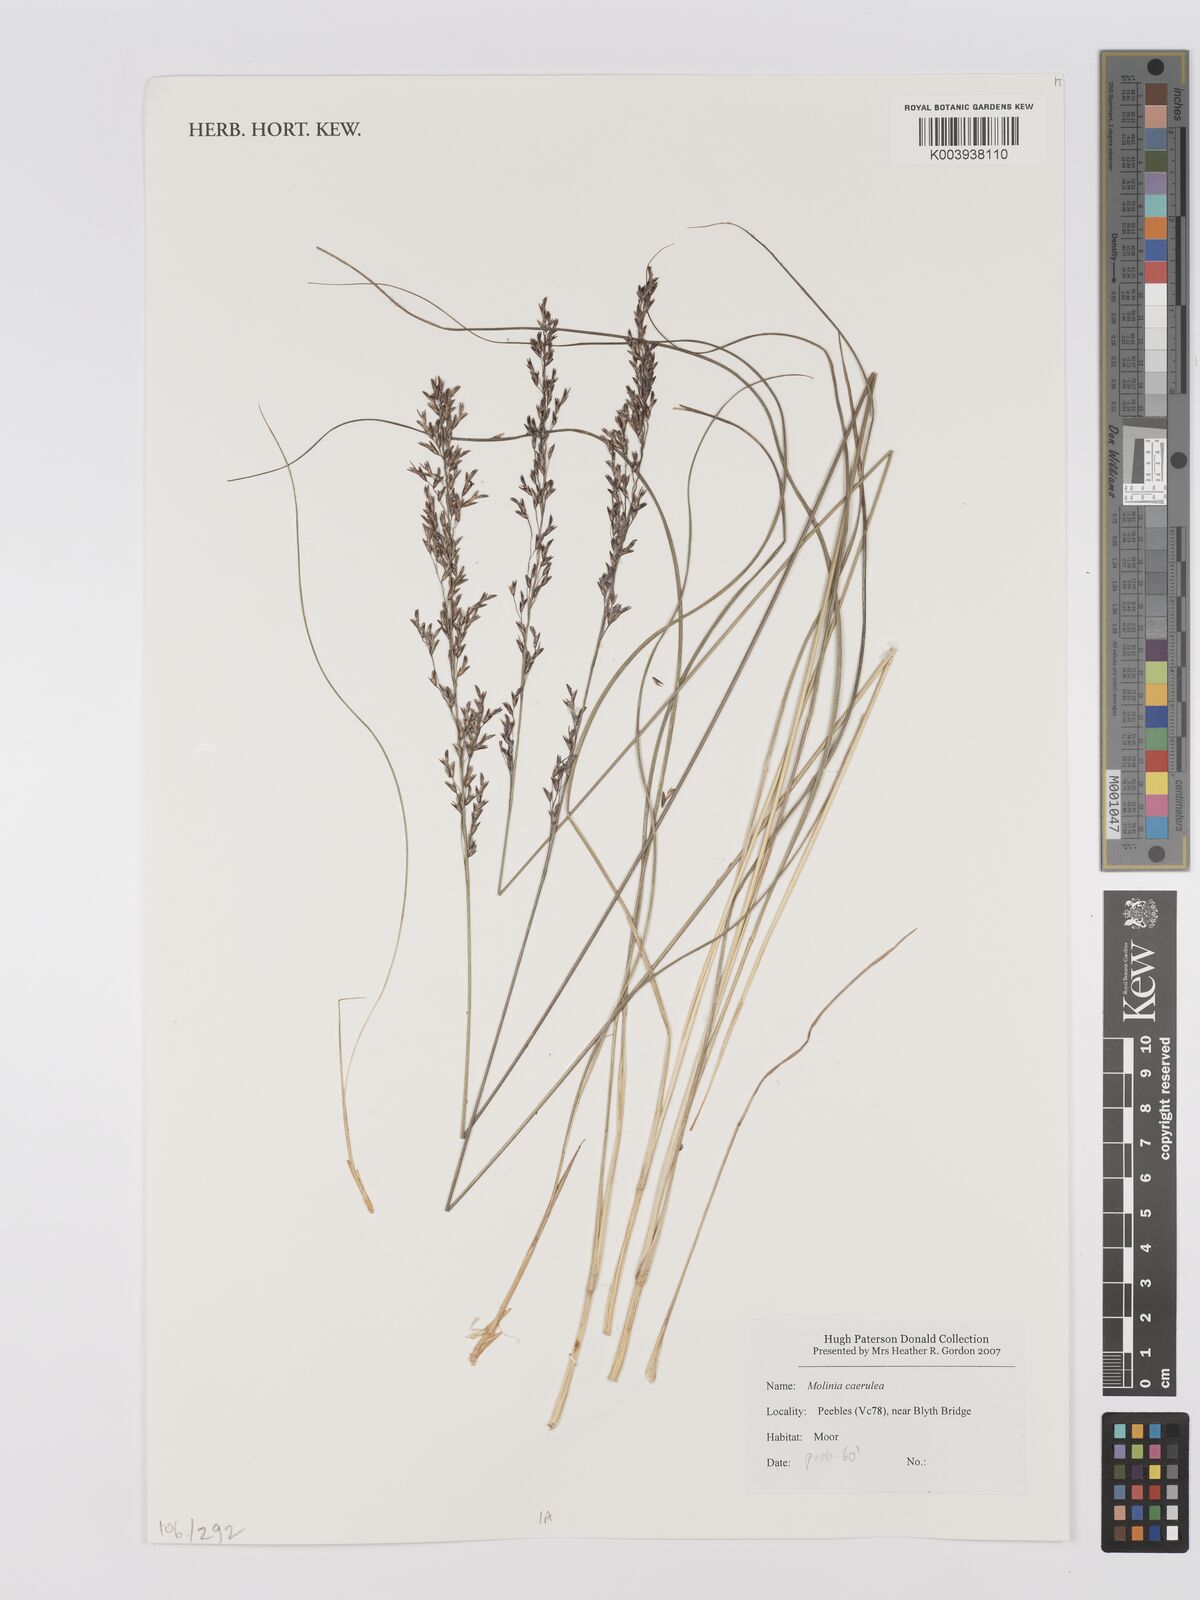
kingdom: Plantae
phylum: Tracheophyta
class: Liliopsida
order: Poales
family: Poaceae
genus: Hakonechloa
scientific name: Hakonechloa
